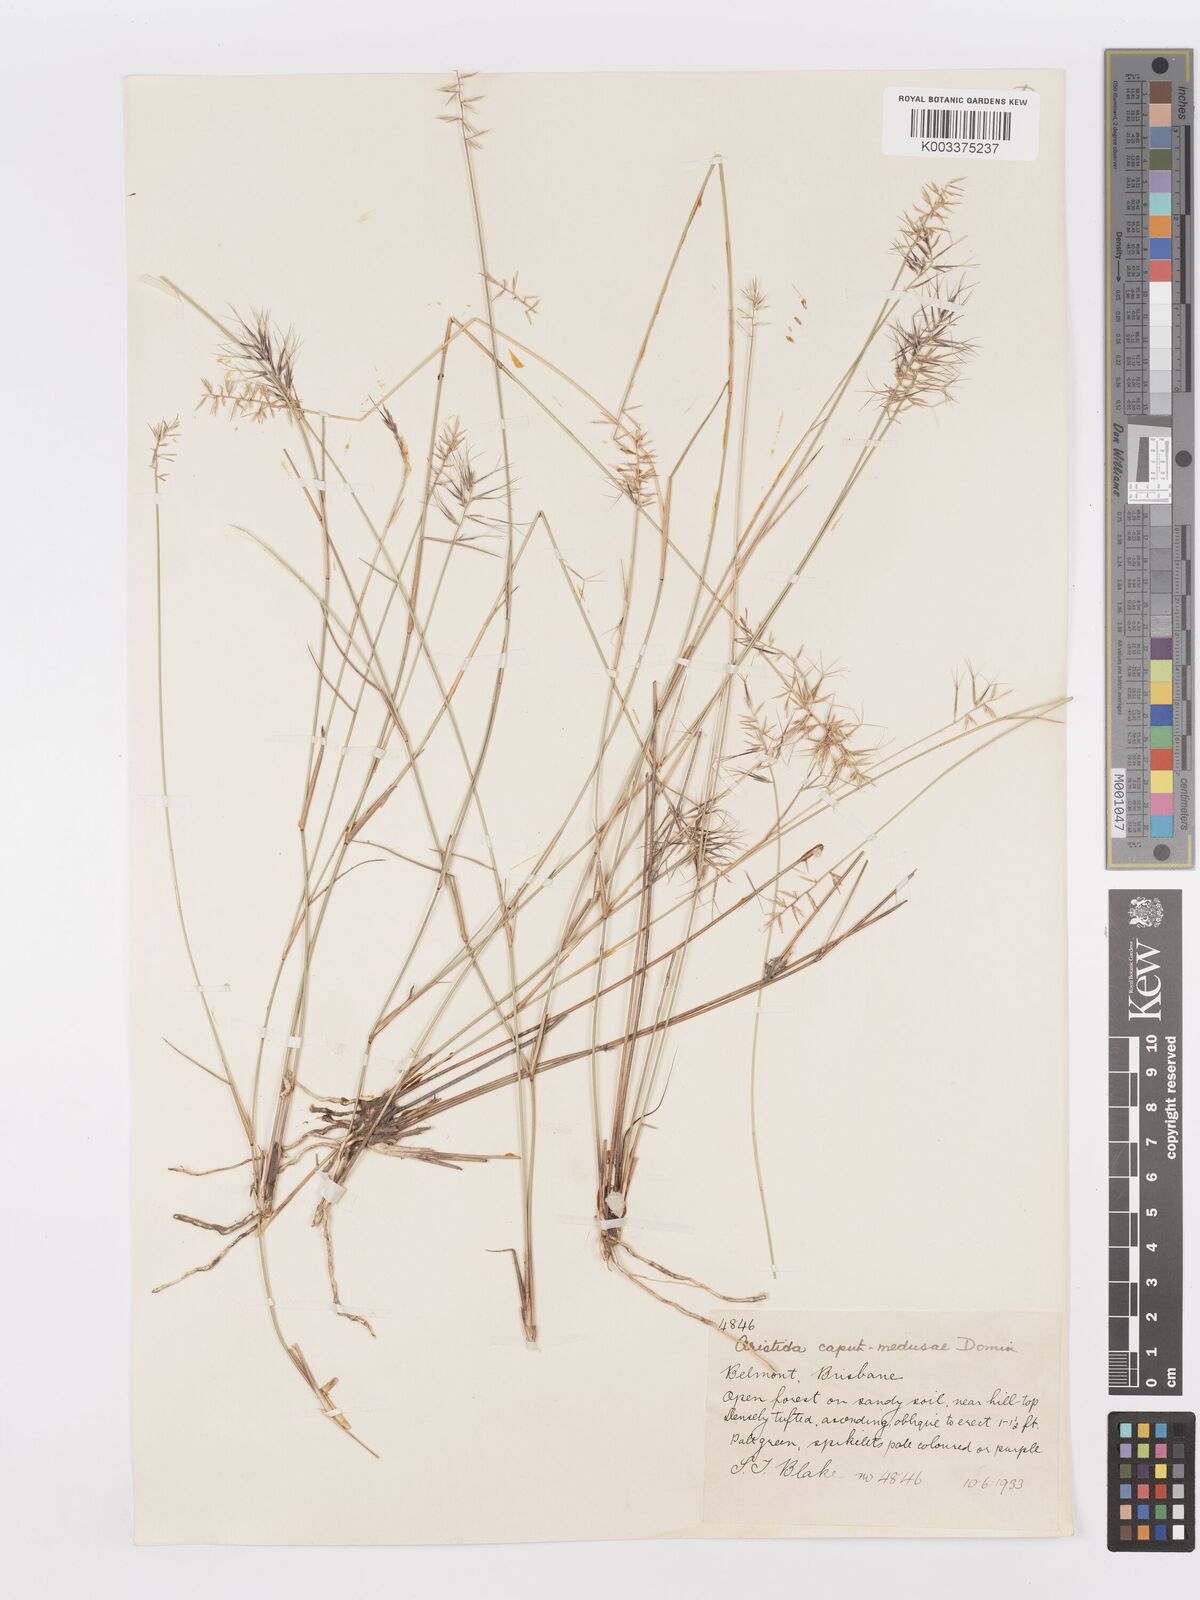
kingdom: Plantae
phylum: Tracheophyta
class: Liliopsida
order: Poales
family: Poaceae
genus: Aristida
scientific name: Aristida caput-medusae
